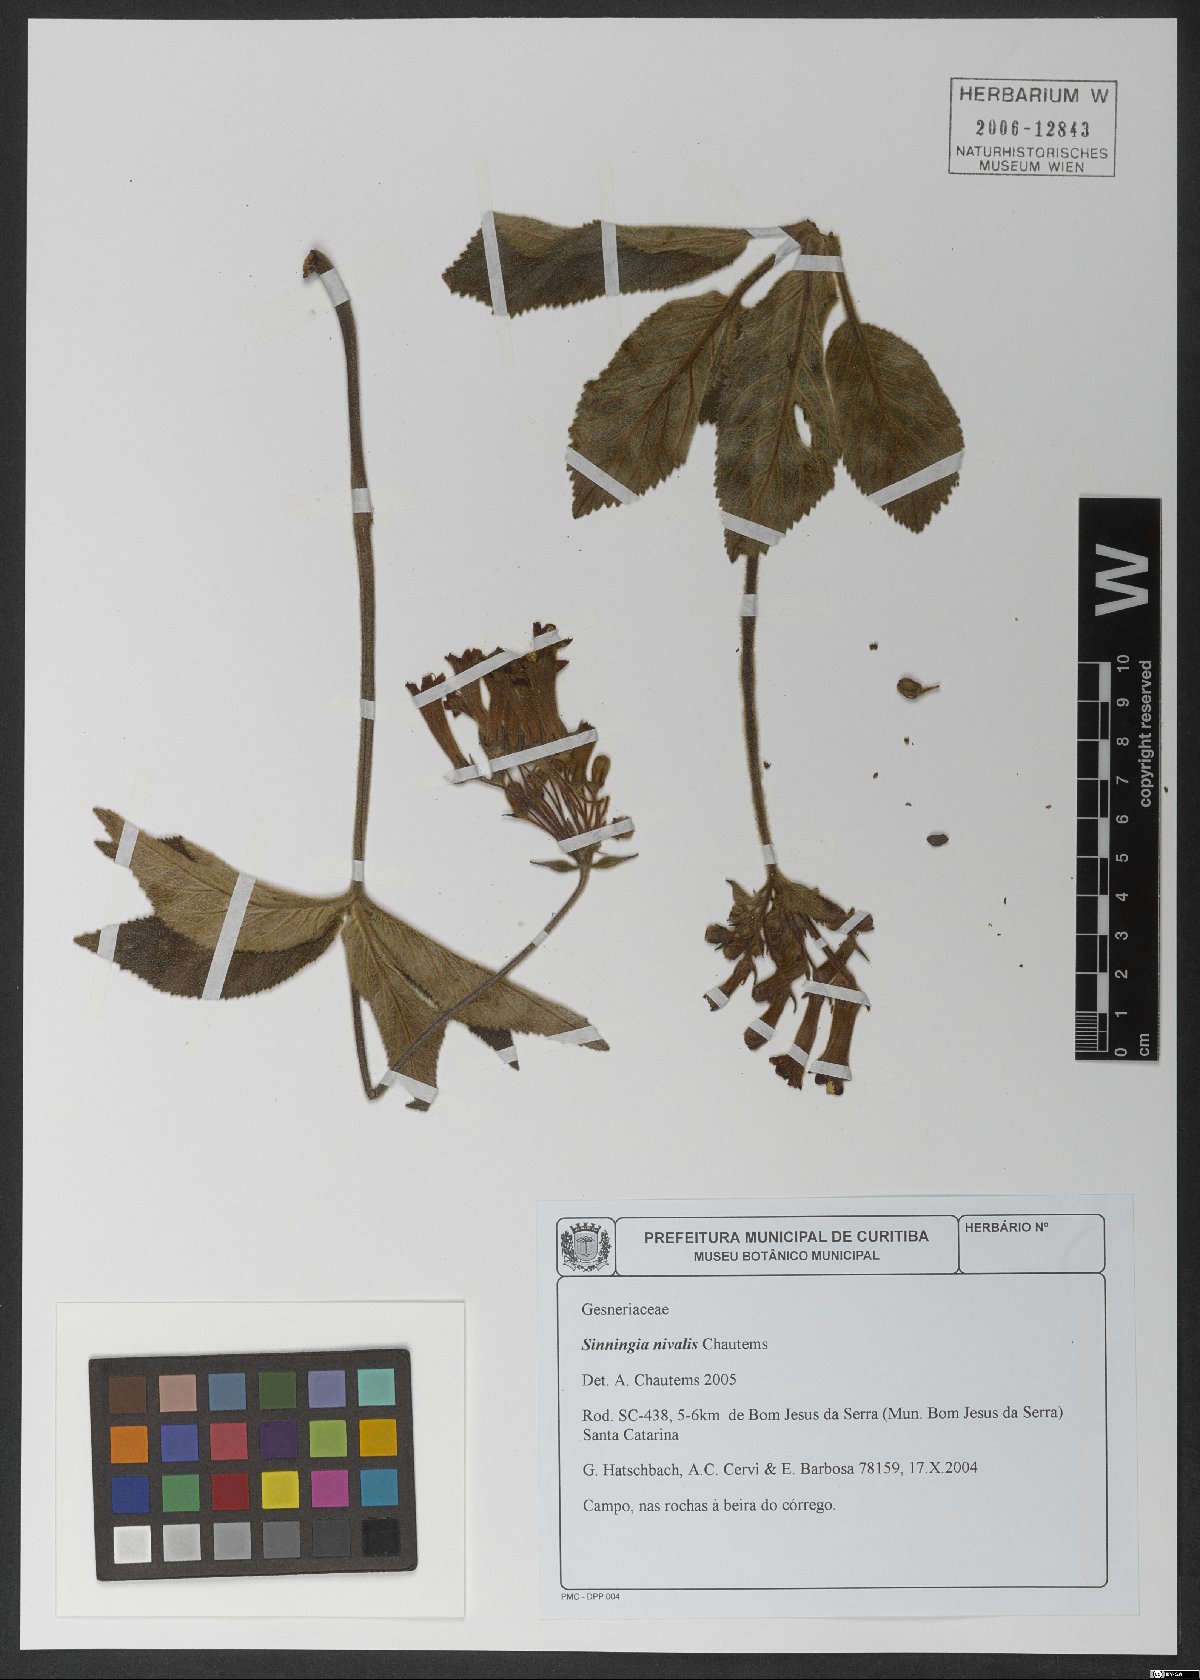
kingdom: Plantae
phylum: Tracheophyta
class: Magnoliopsida
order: Lamiales
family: Gesneriaceae
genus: Sinningia
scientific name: Sinningia nivalis
